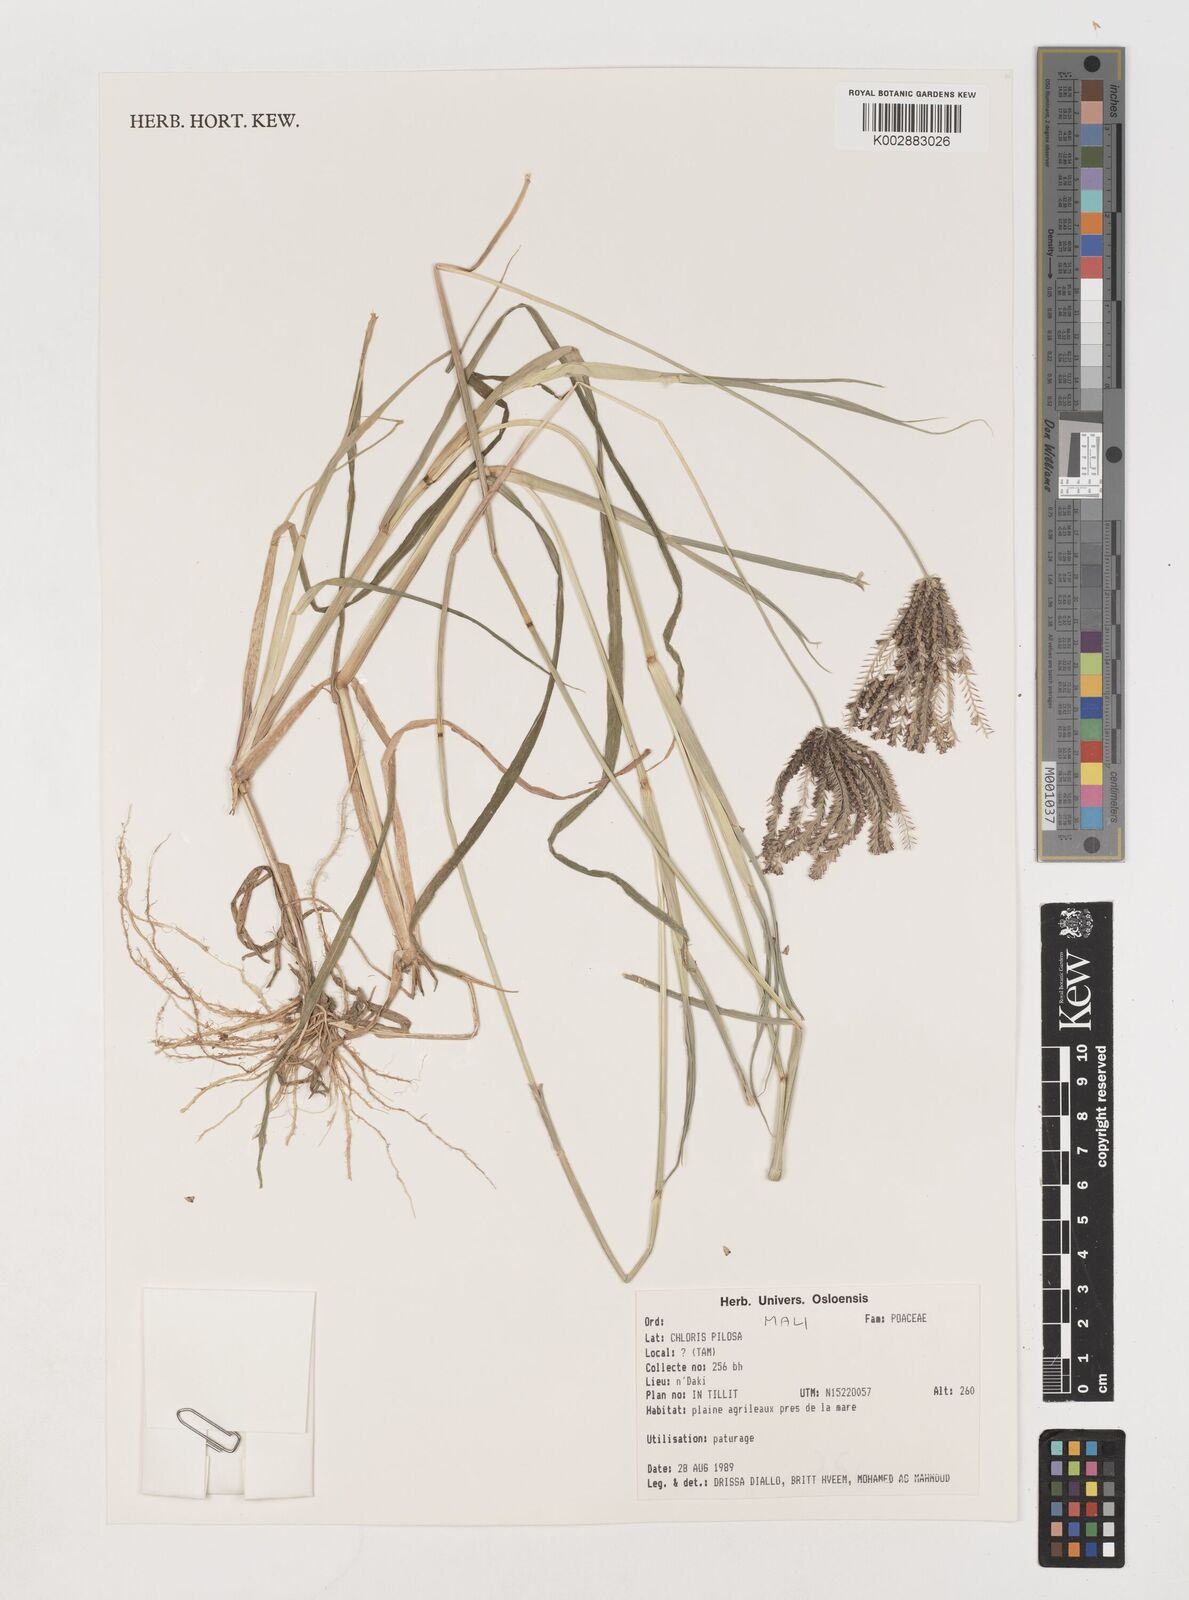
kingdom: Plantae
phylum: Tracheophyta
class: Liliopsida
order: Poales
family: Poaceae
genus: Chloris
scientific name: Chloris pilosa
